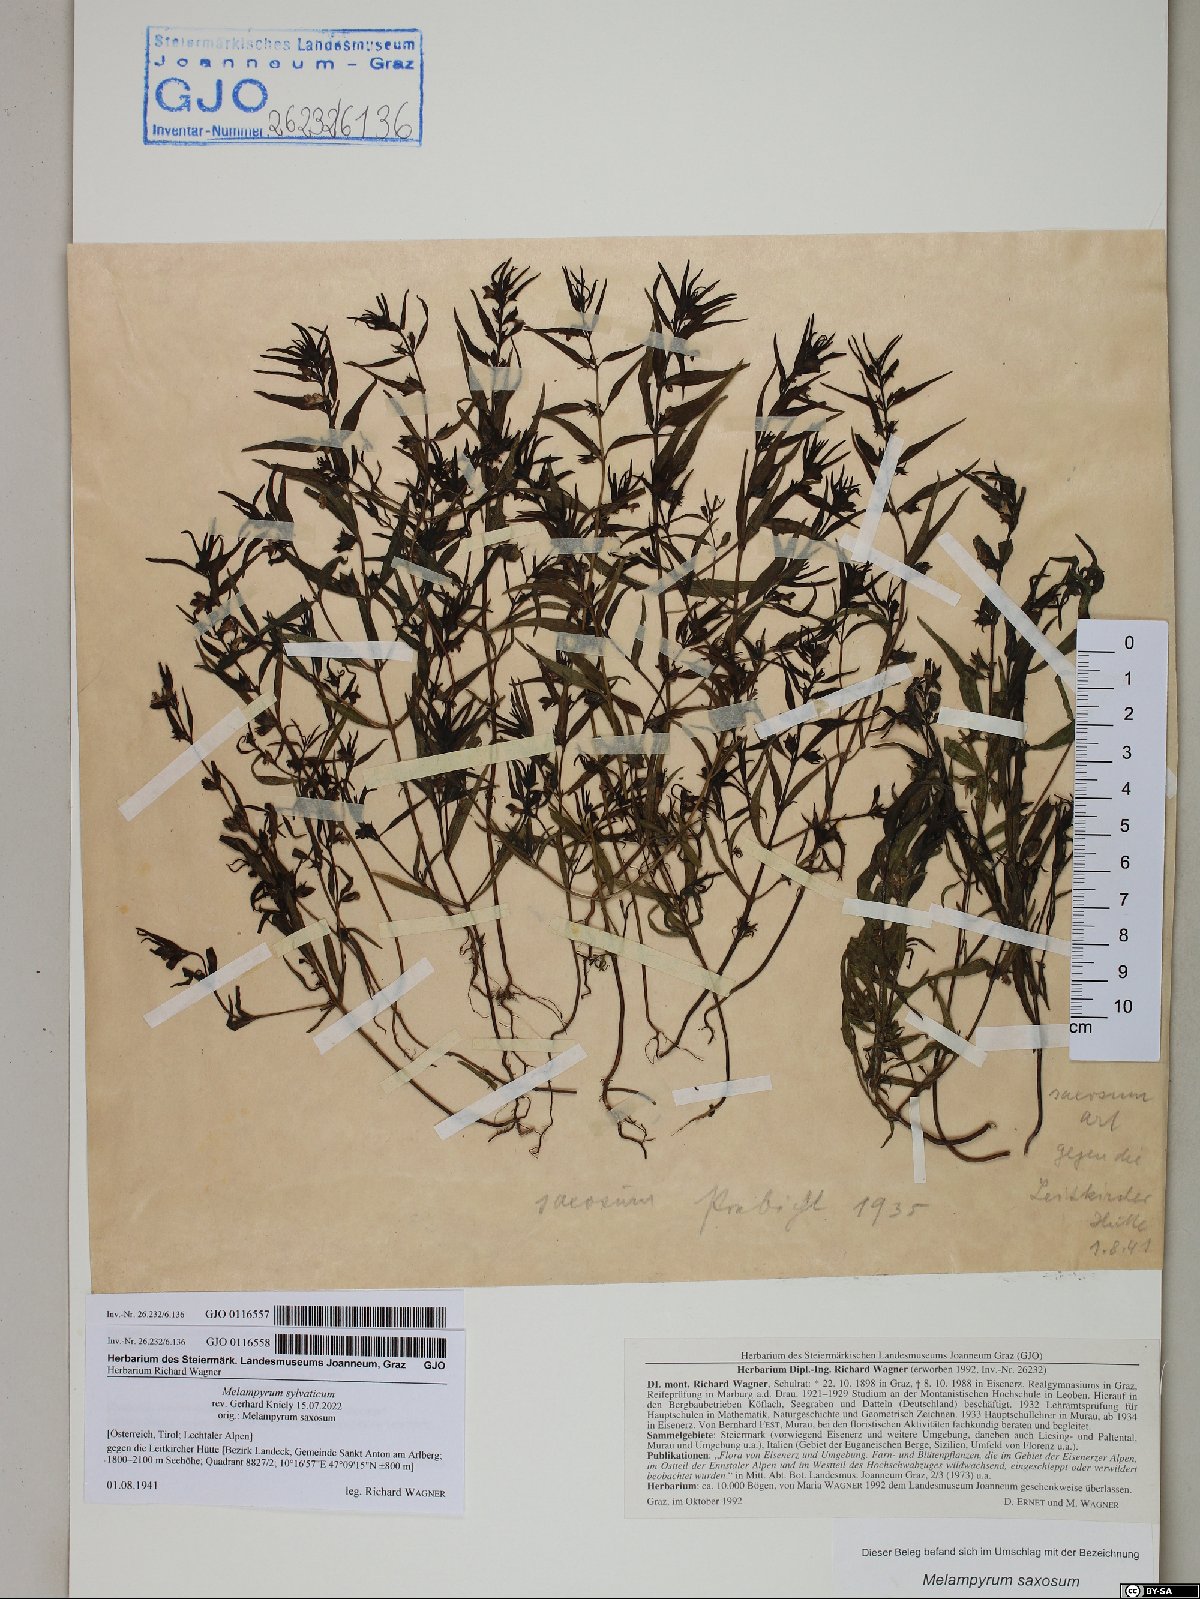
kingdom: Plantae
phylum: Tracheophyta
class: Magnoliopsida
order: Lamiales
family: Orobanchaceae
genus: Melampyrum
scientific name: Melampyrum sylvaticum
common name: Small cow-wheat
